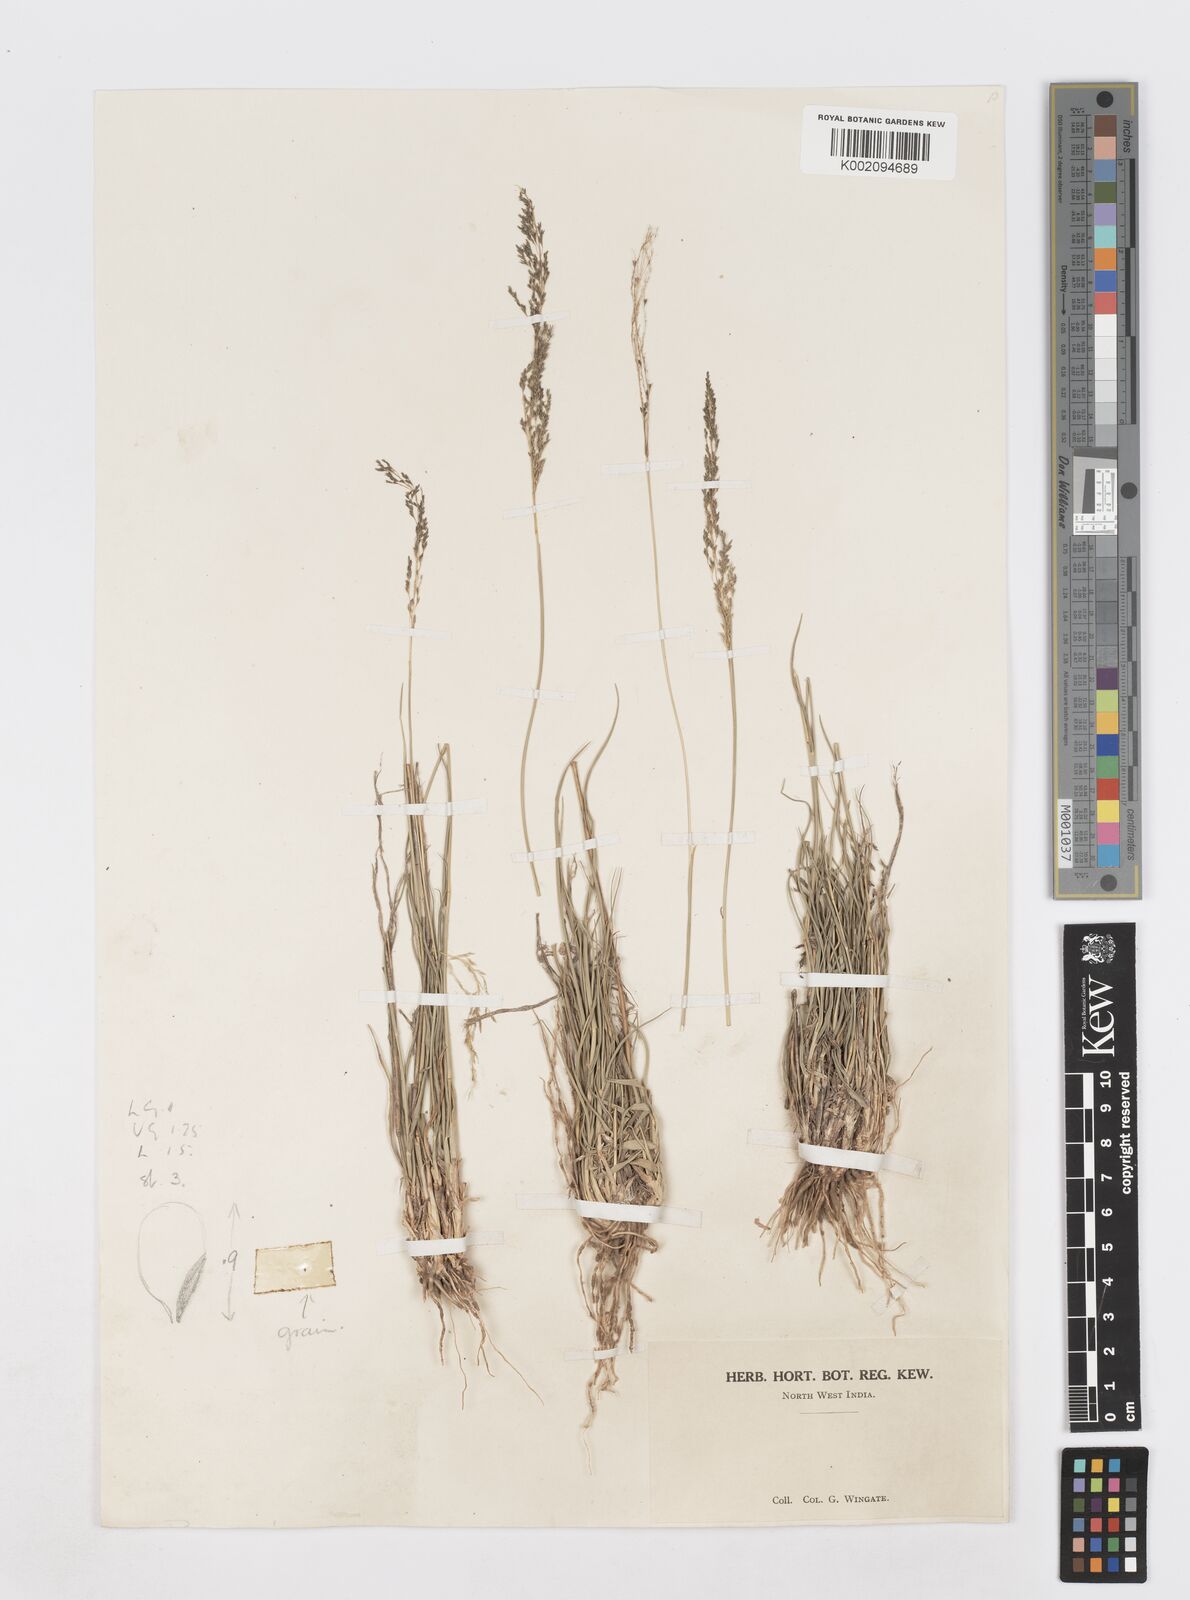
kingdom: Plantae
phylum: Tracheophyta
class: Liliopsida
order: Poales
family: Poaceae
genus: Sporobolus
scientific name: Sporobolus
